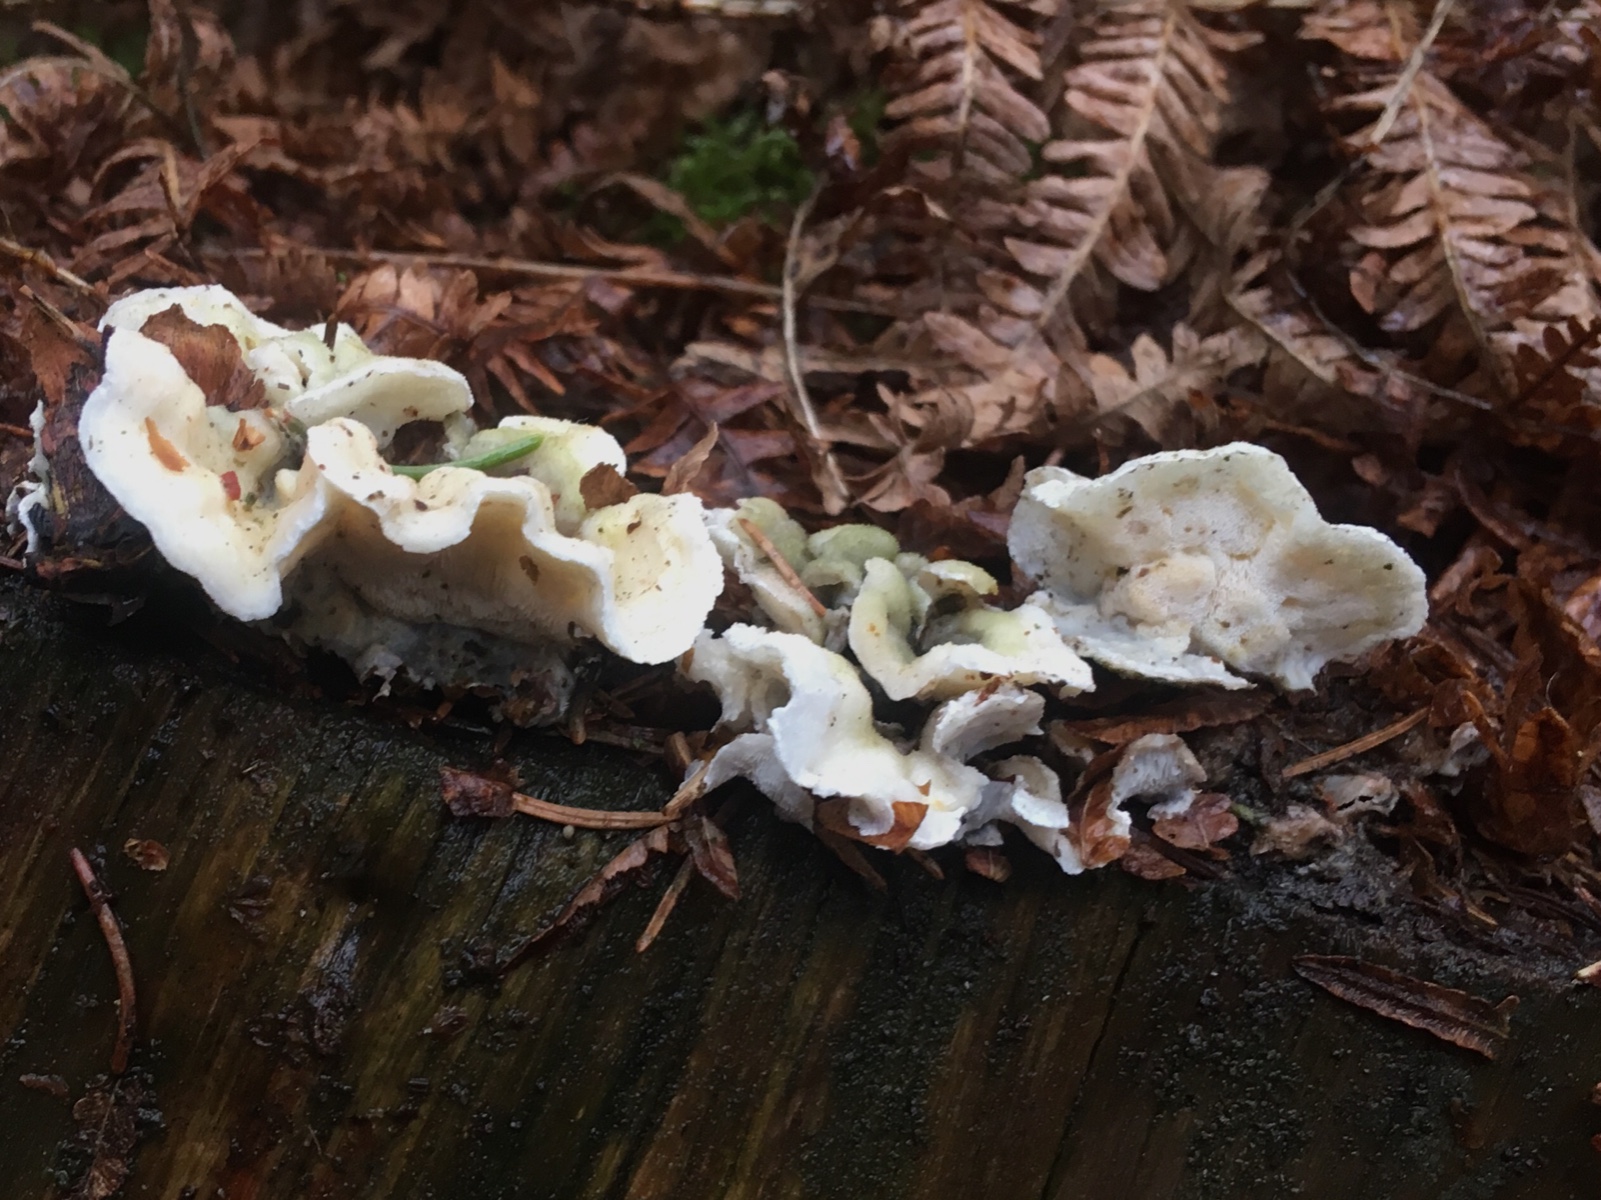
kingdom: Fungi
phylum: Basidiomycota
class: Agaricomycetes
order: Polyporales
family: Incrustoporiaceae
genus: Skeletocutis
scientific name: Skeletocutis amorpha
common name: orange krystalporesvamp
